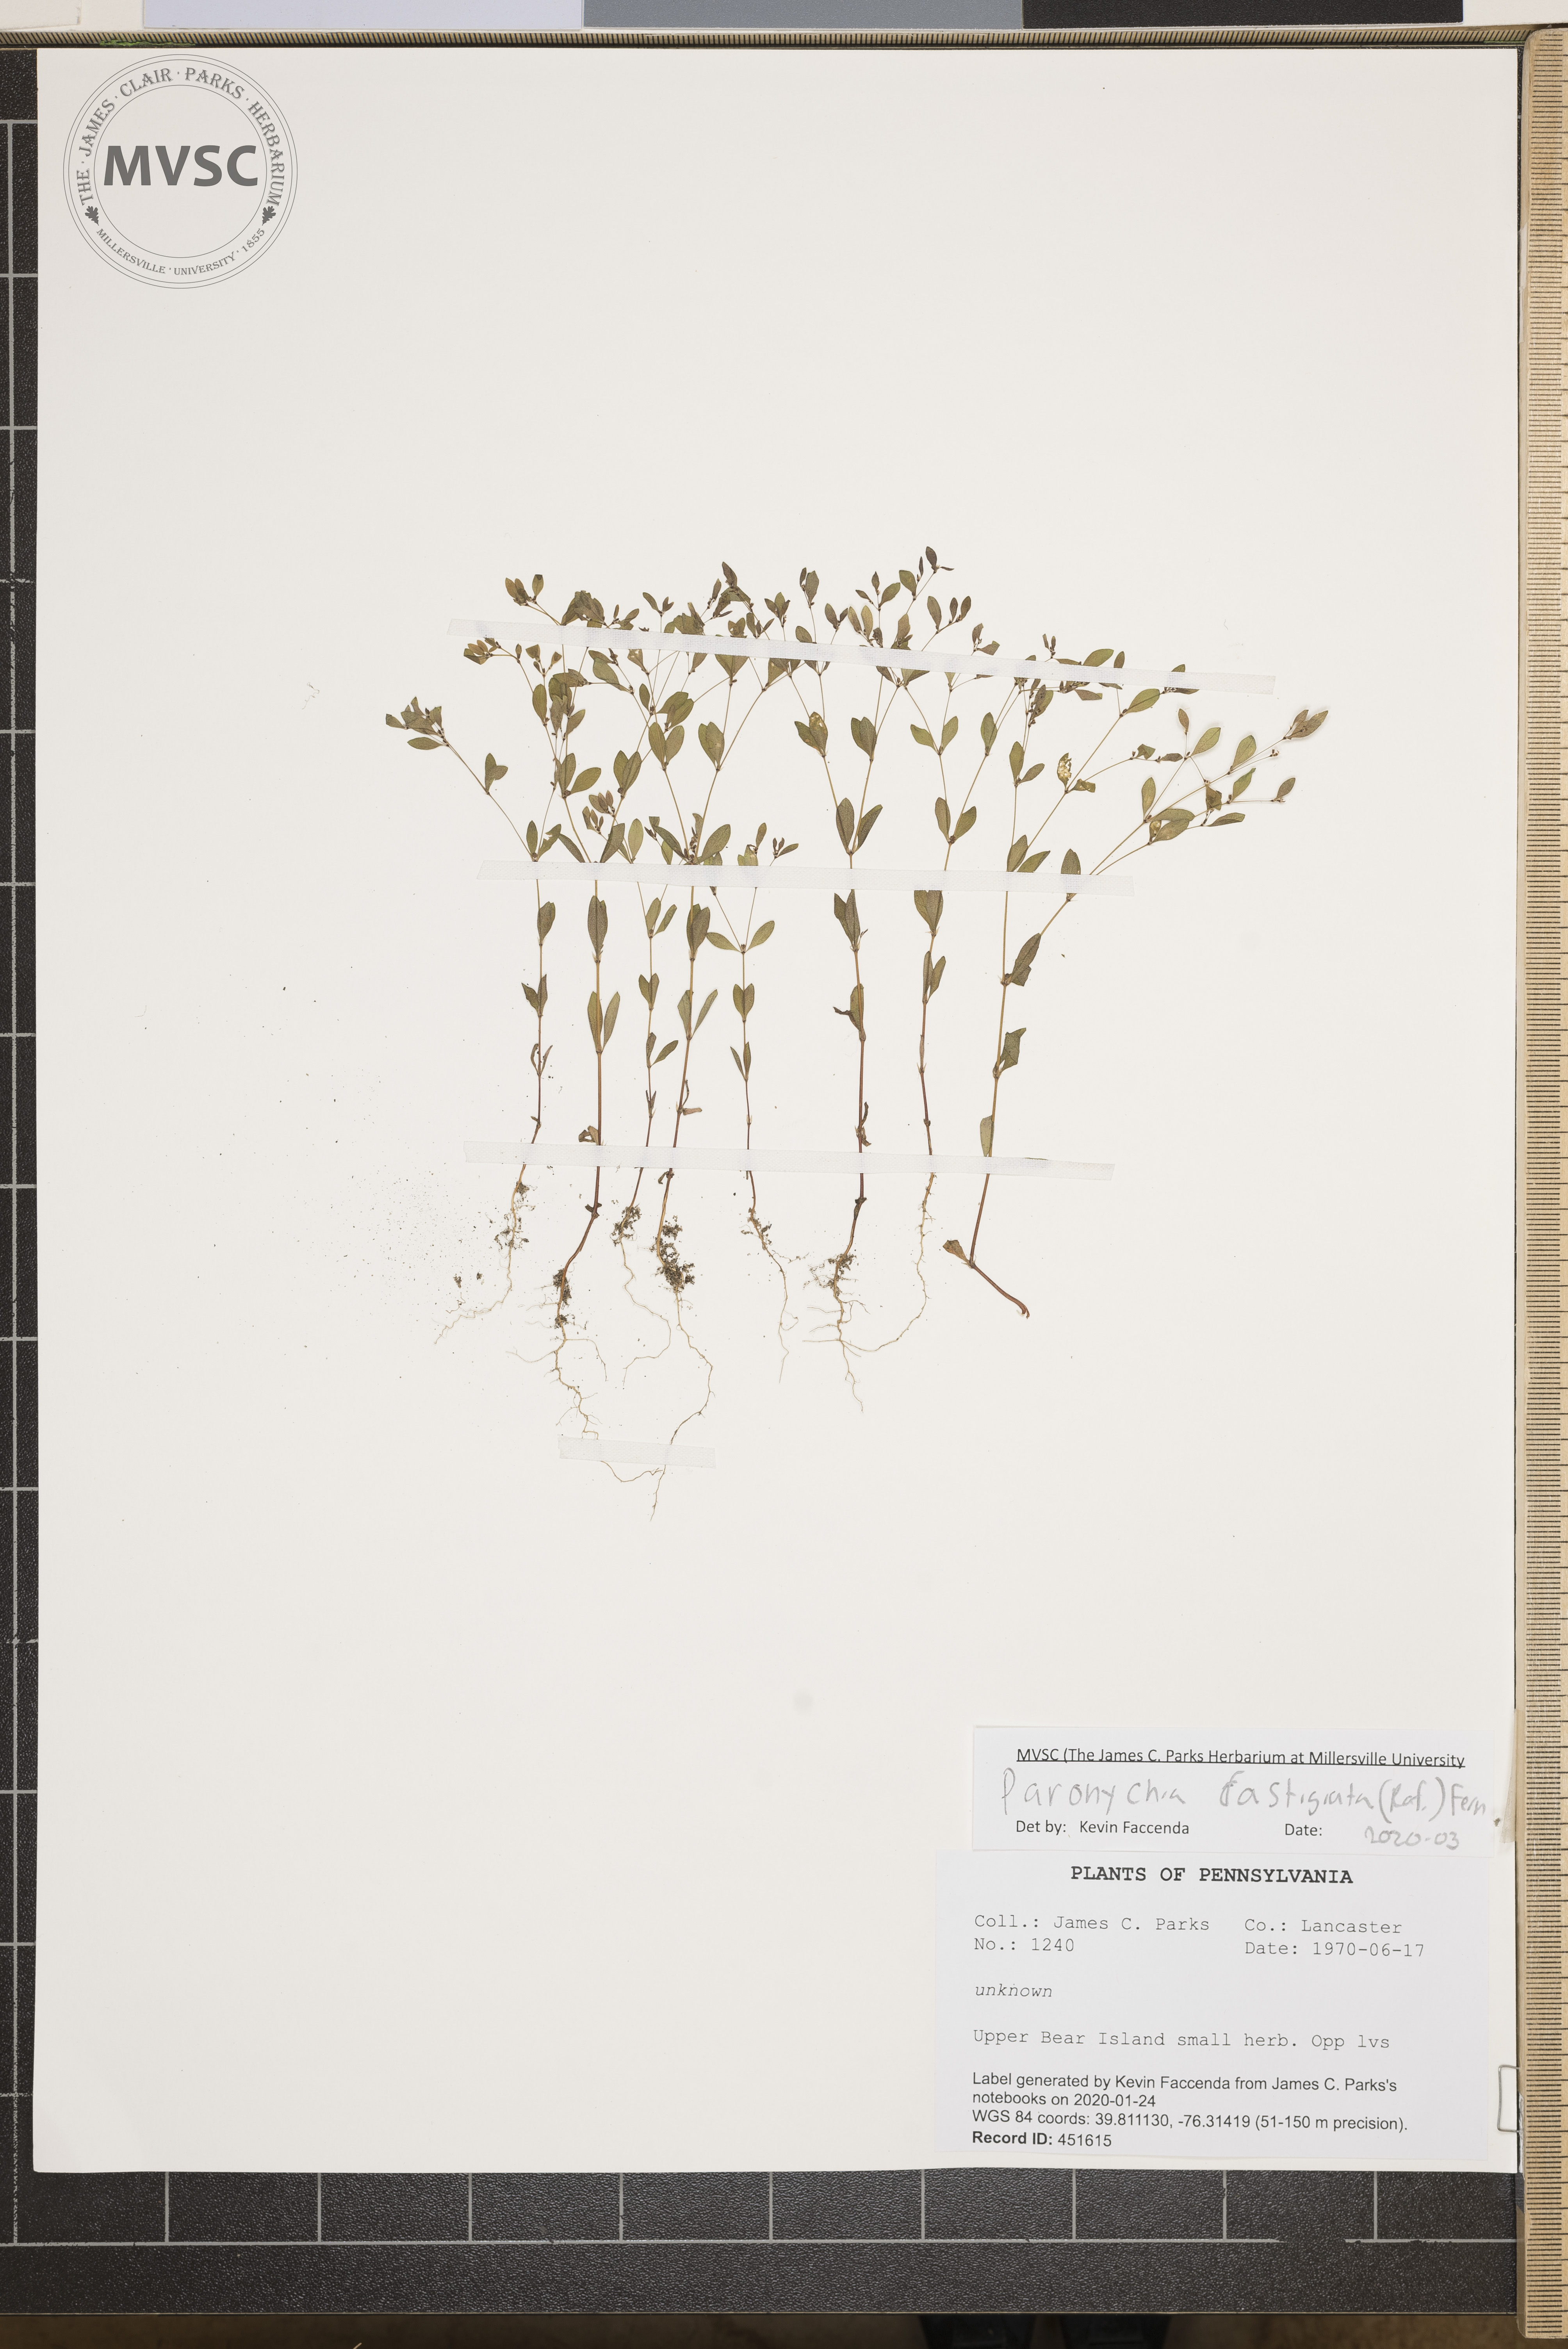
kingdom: Plantae
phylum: Tracheophyta
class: Magnoliopsida
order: Caryophyllales
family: Caryophyllaceae
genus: Paronychia
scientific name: Paronychia fastigiata
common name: Branching forked whitlow-wort
